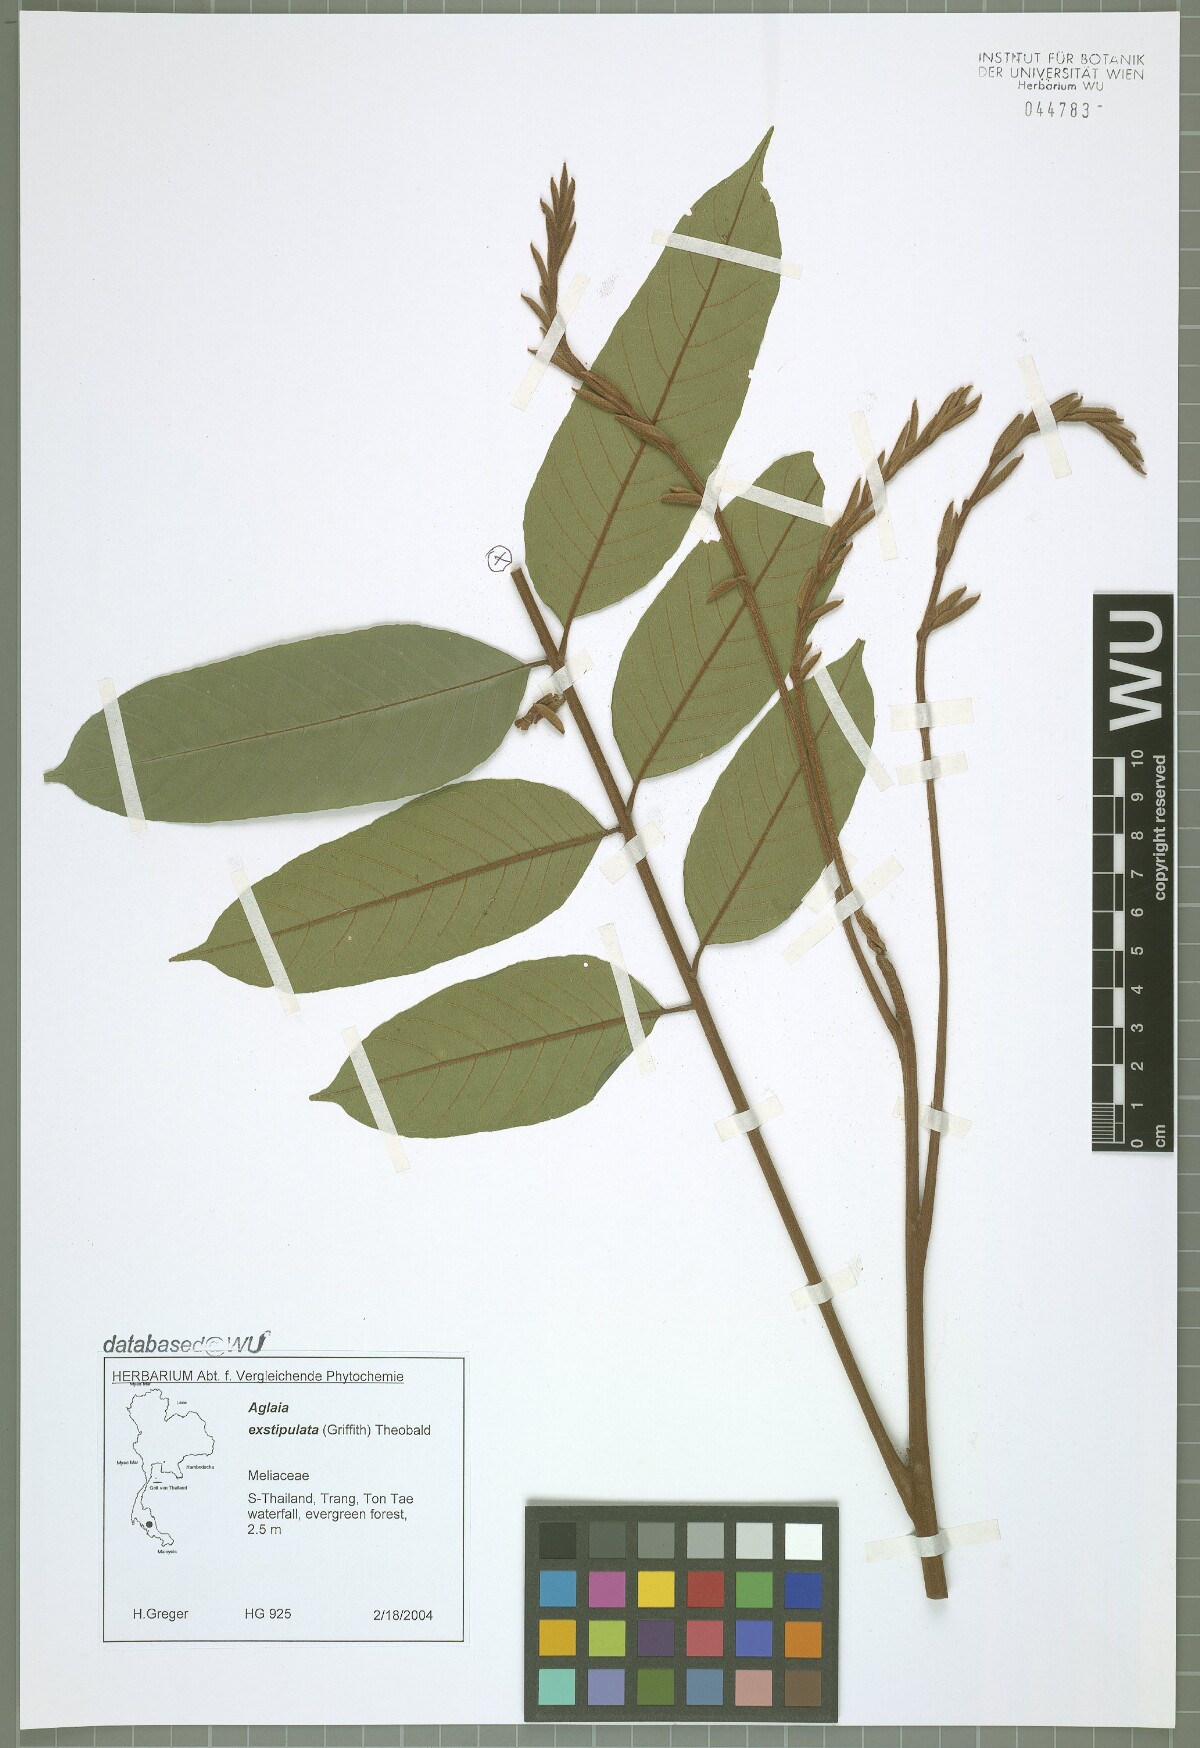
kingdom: Plantae
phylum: Tracheophyta
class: Magnoliopsida
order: Sapindales
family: Meliaceae
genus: Aglaia
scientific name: Aglaia exstipulata
